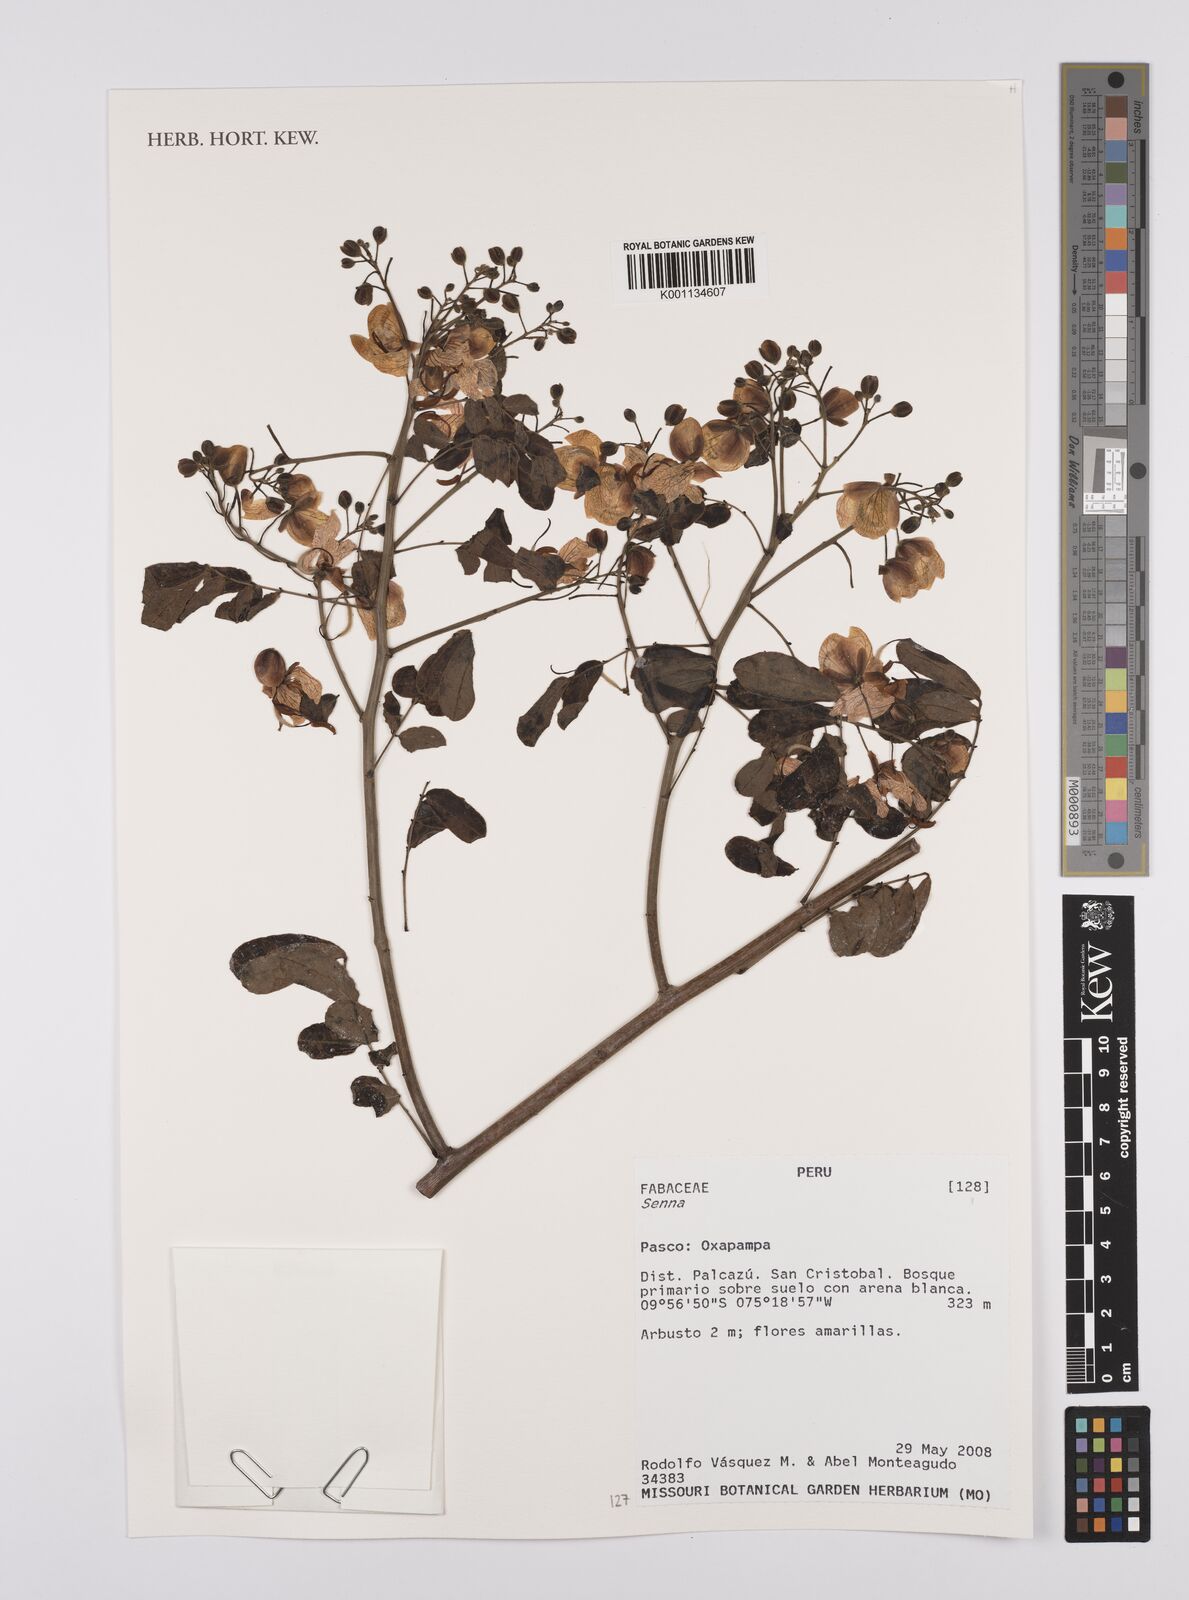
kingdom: Plantae
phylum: Tracheophyta
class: Magnoliopsida
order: Fabales
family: Fabaceae
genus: Senna
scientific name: Senna
